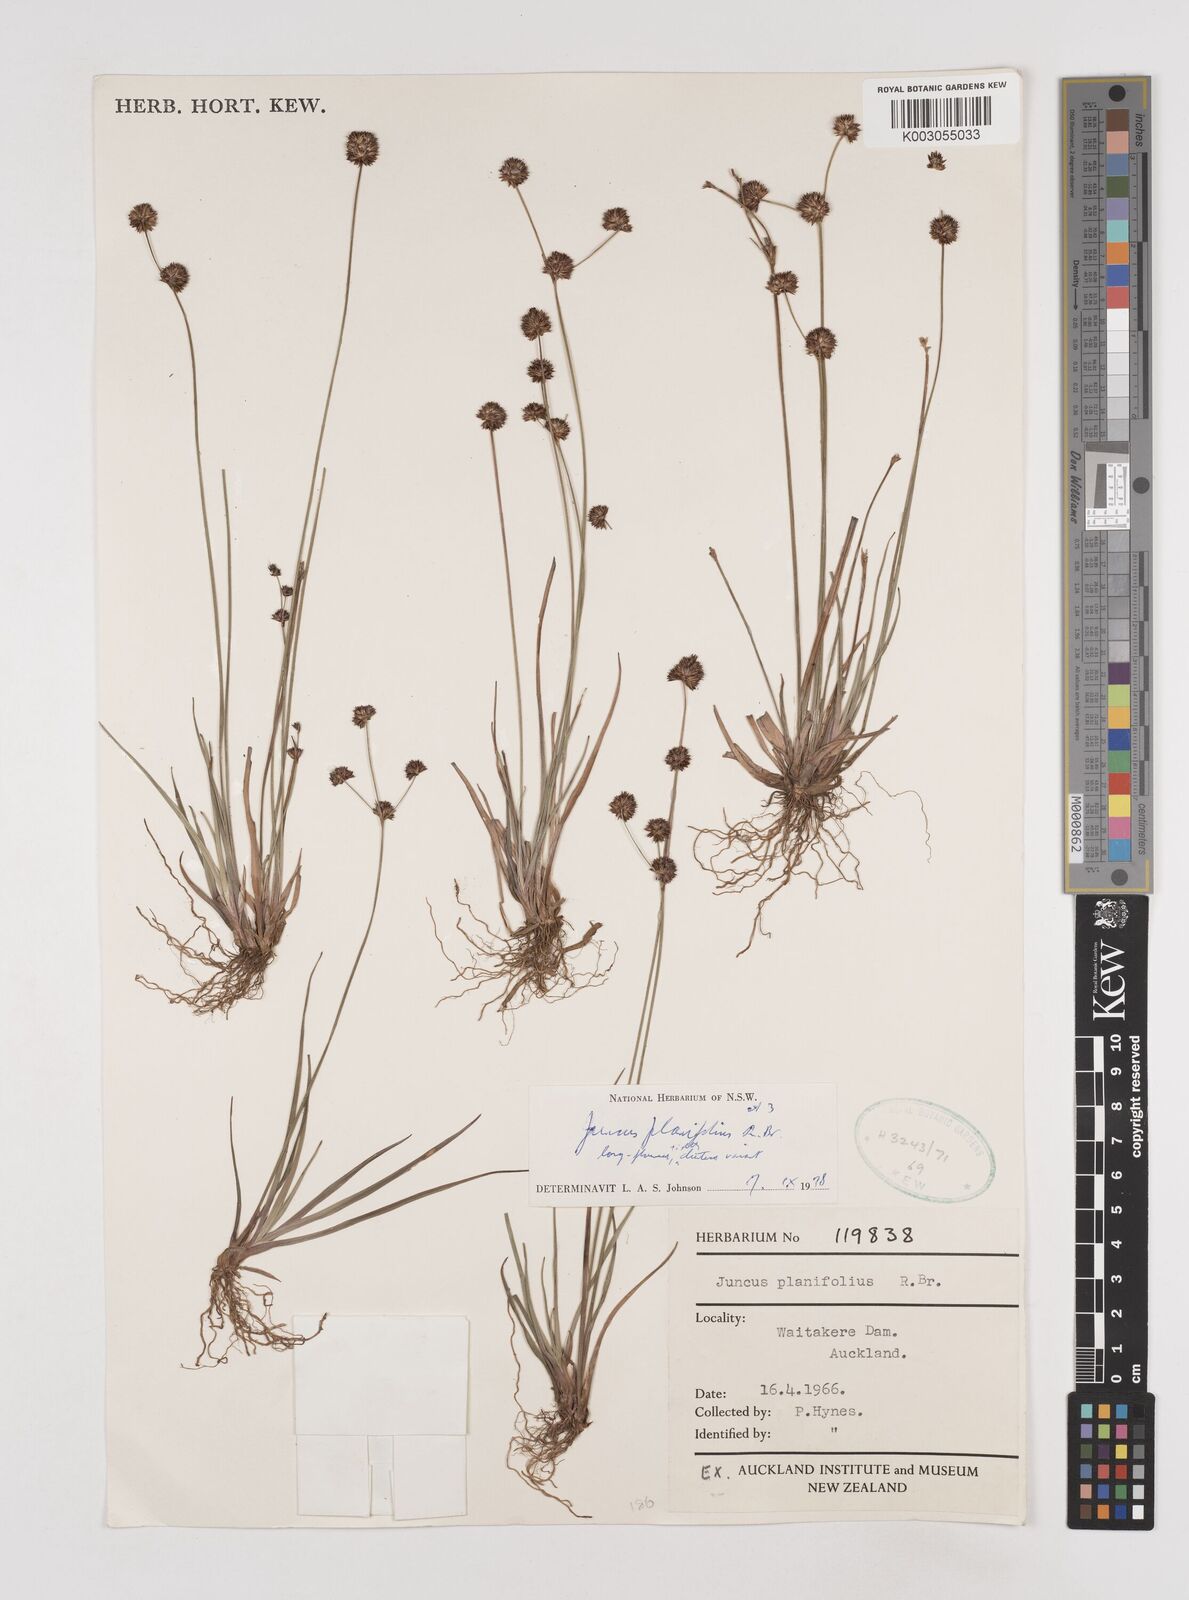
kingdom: Plantae
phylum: Tracheophyta
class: Liliopsida
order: Poales
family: Juncaceae
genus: Juncus
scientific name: Juncus planifolius
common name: Broadleaf rush
